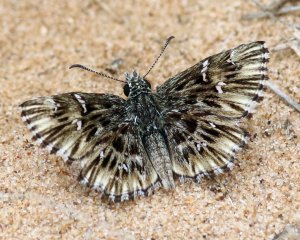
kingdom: Animalia
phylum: Arthropoda
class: Insecta
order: Lepidoptera
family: Hesperiidae
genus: Celotes
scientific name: Celotes nessus
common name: Common Streaky-Skipper
